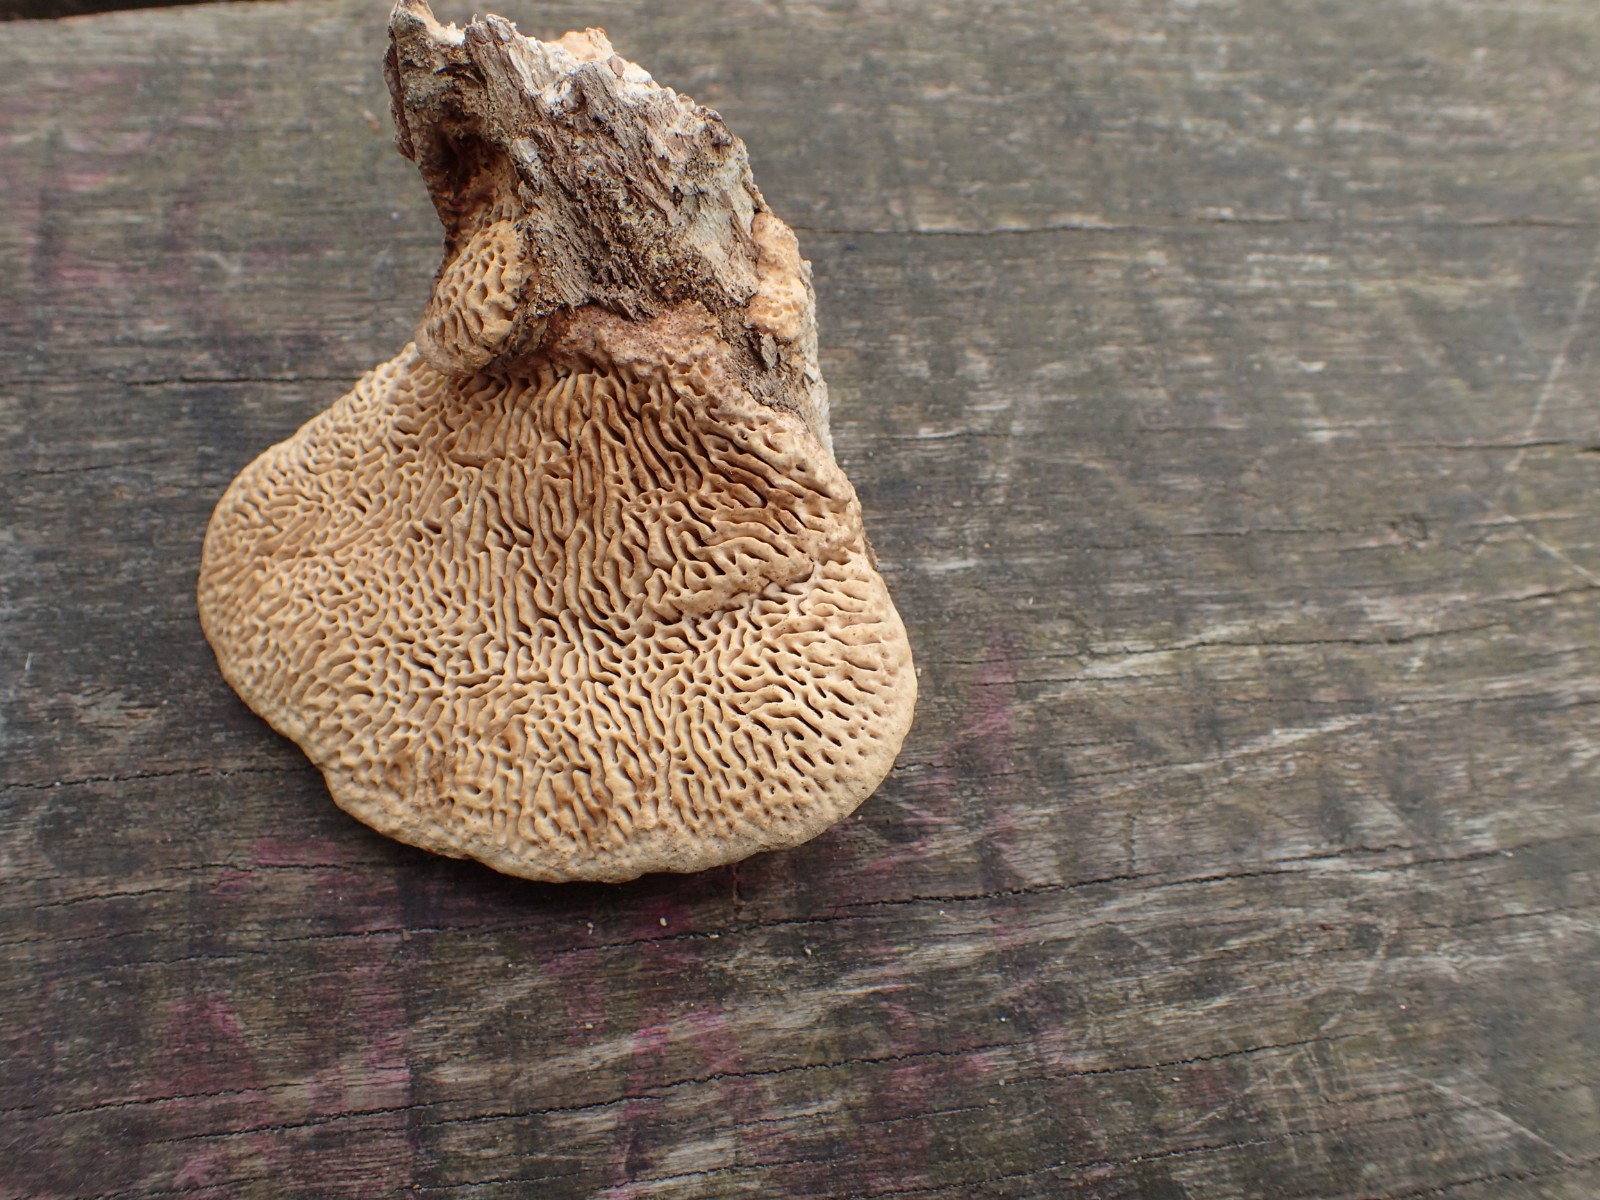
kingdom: Fungi
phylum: Basidiomycota
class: Agaricomycetes
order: Polyporales
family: Fomitopsidaceae
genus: Daedalea
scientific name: Daedalea quercina
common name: ege-labyrintsvamp
